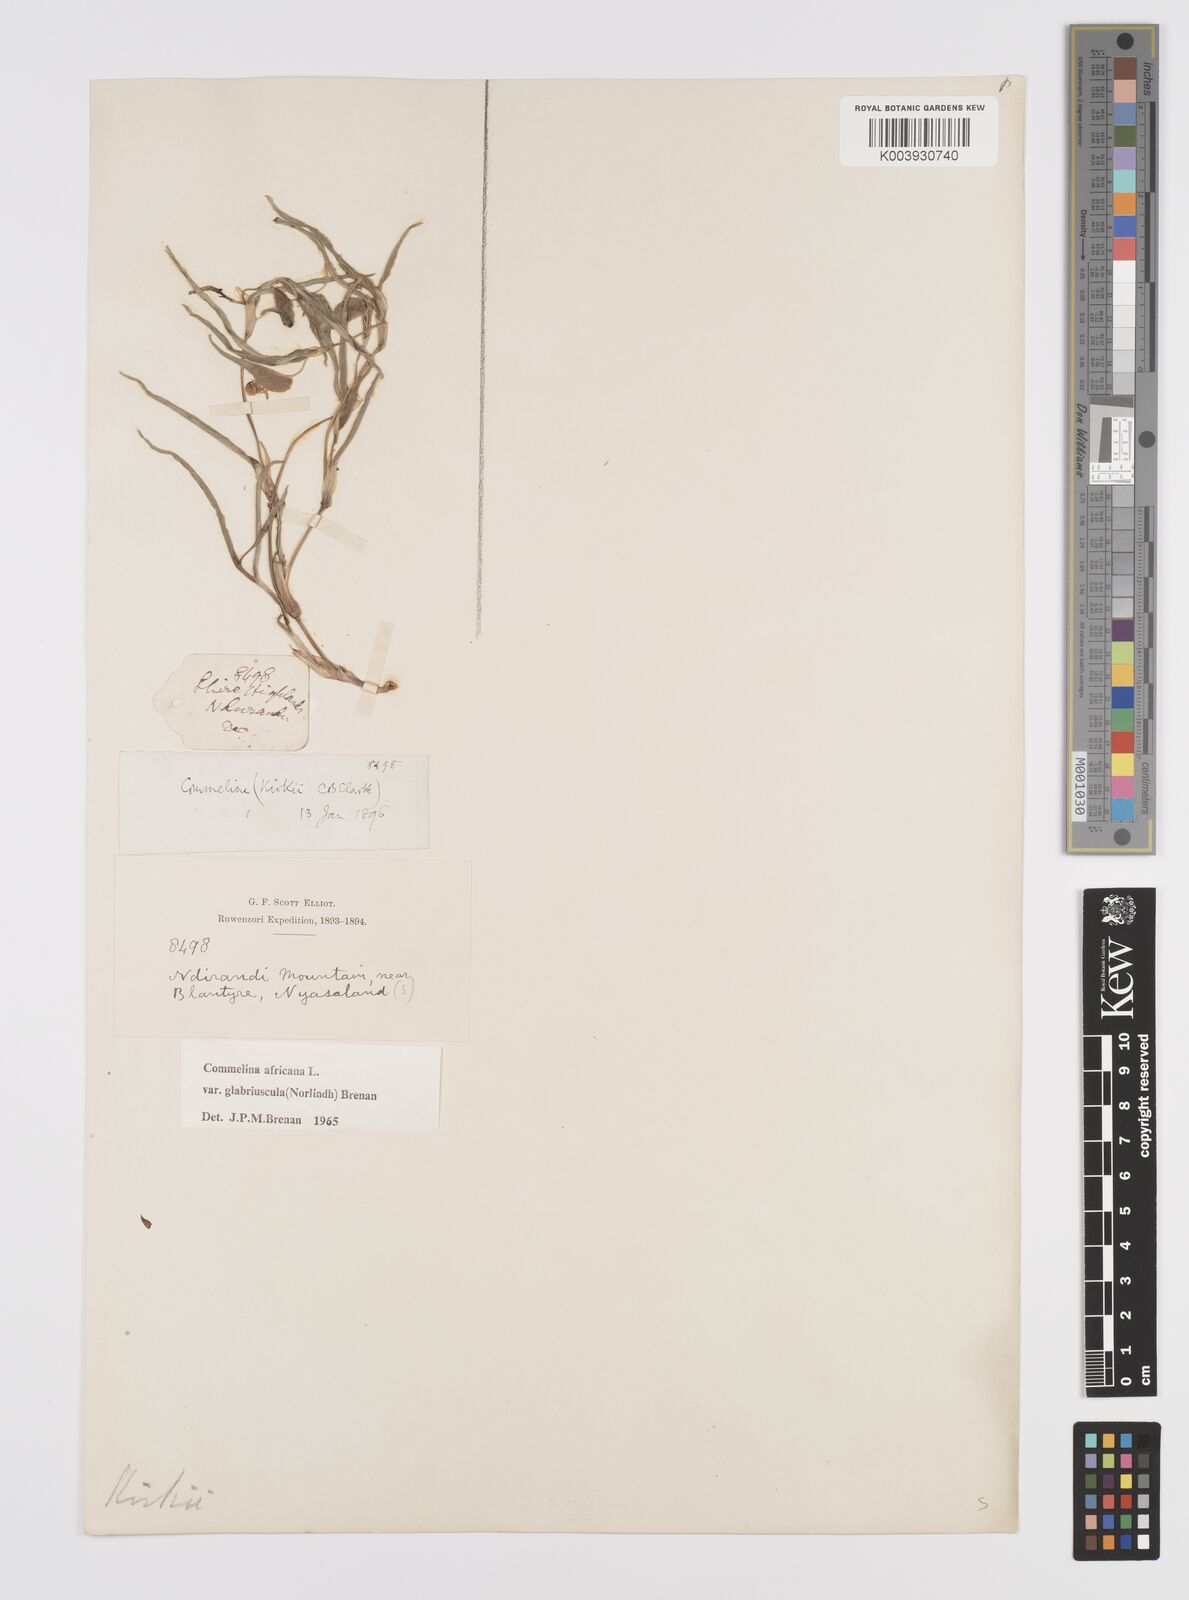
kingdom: Plantae
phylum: Tracheophyta
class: Liliopsida
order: Commelinales
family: Commelinaceae
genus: Commelina
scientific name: Commelina africana
